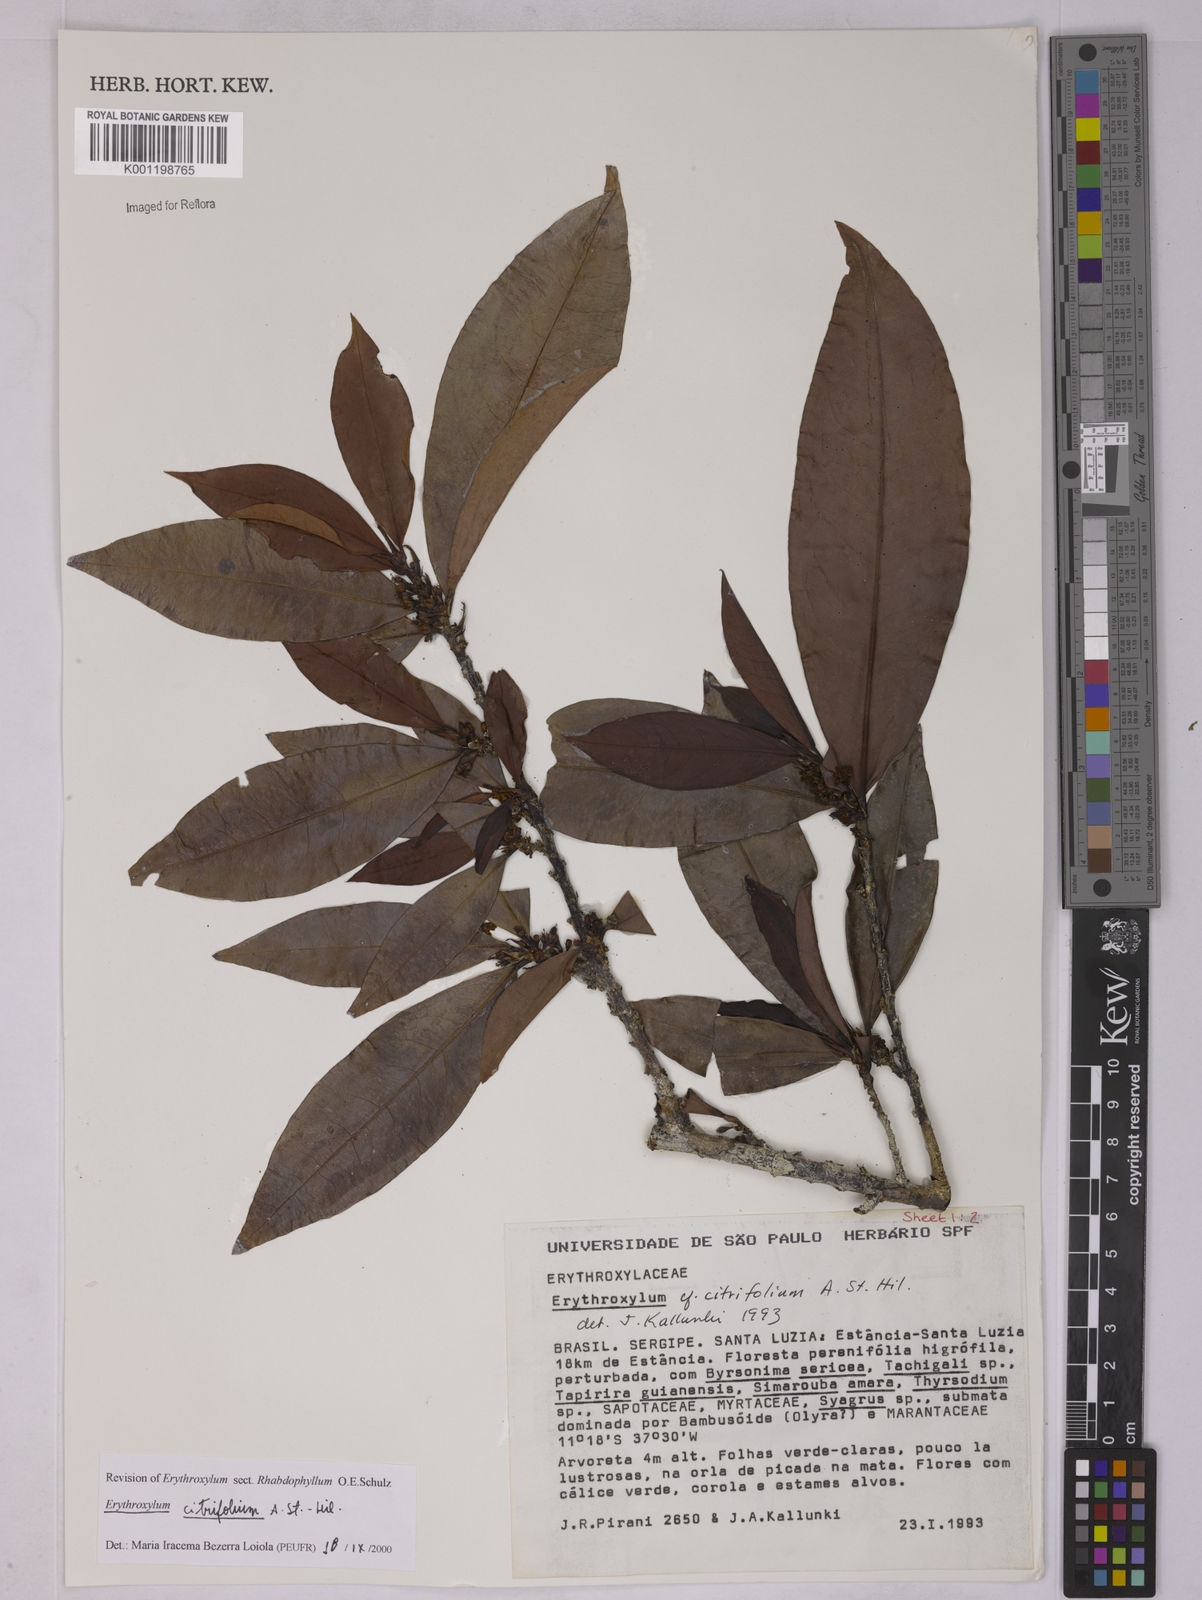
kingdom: Plantae
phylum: Tracheophyta
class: Magnoliopsida
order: Malpighiales
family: Erythroxylaceae
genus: Erythroxylum
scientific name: Erythroxylum citrifolium
